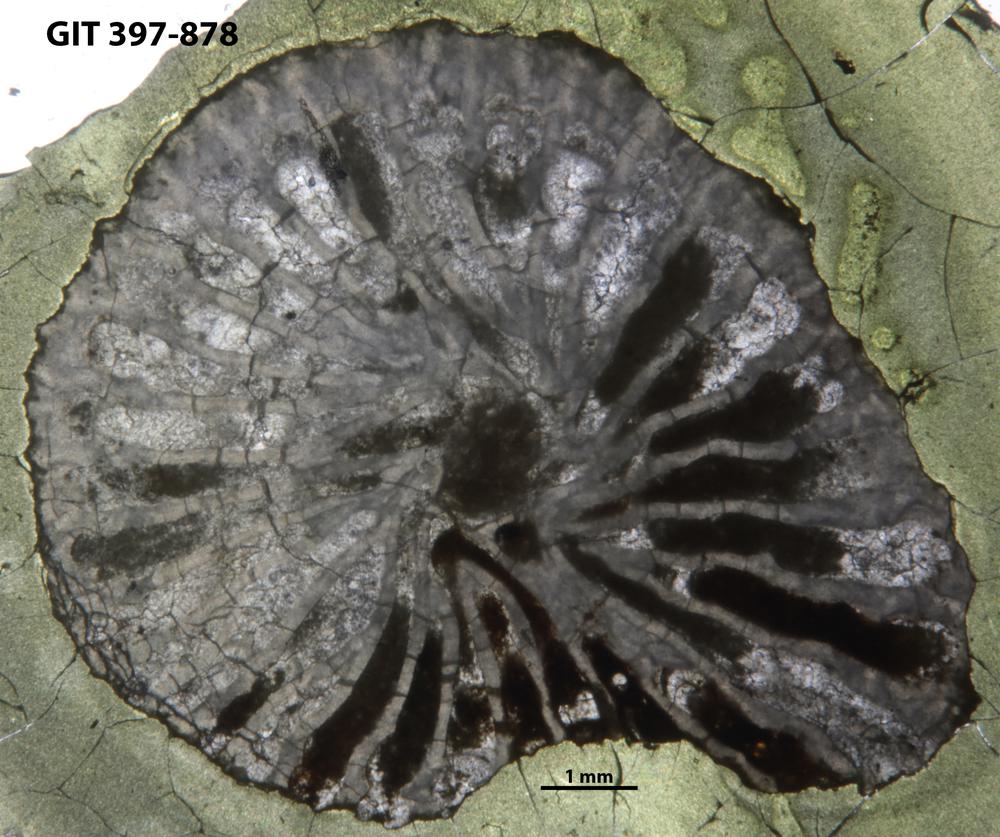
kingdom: Animalia
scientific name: Animalia
